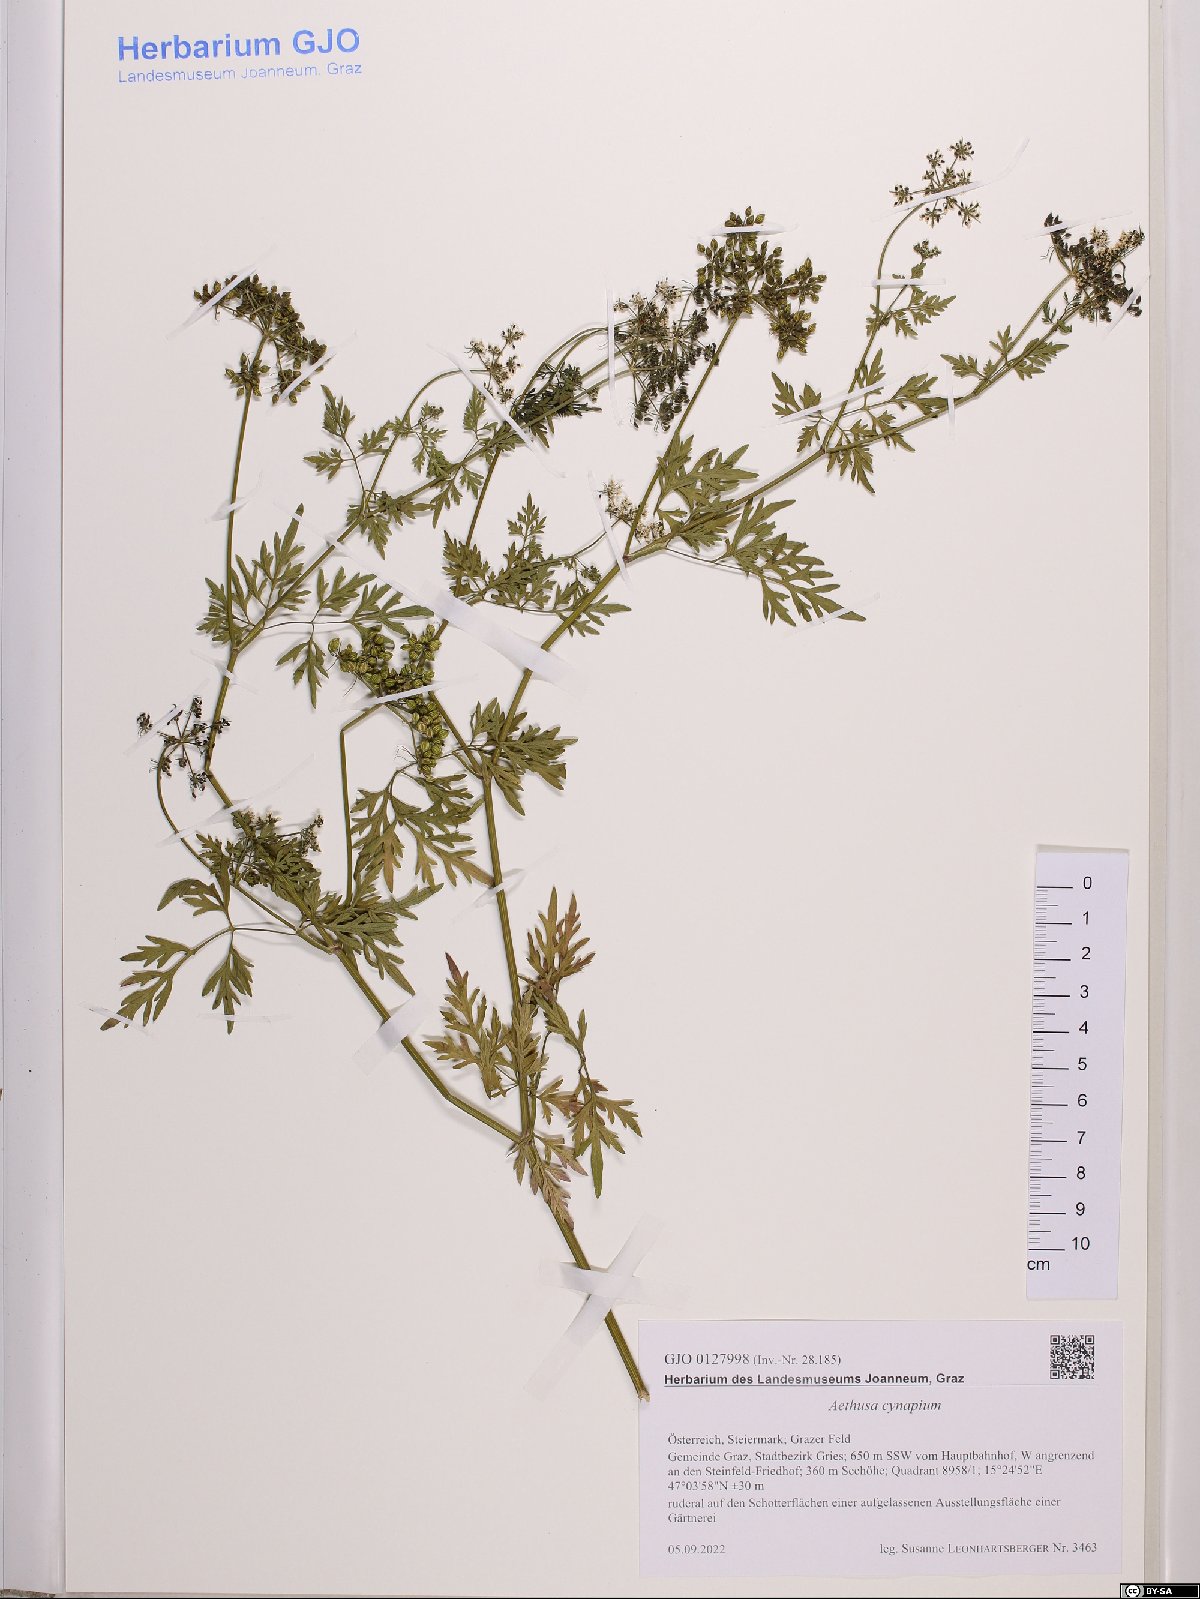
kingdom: Plantae
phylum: Tracheophyta
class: Magnoliopsida
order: Apiales
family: Apiaceae
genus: Aethusa
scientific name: Aethusa cynapium
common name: Fool's parsley
